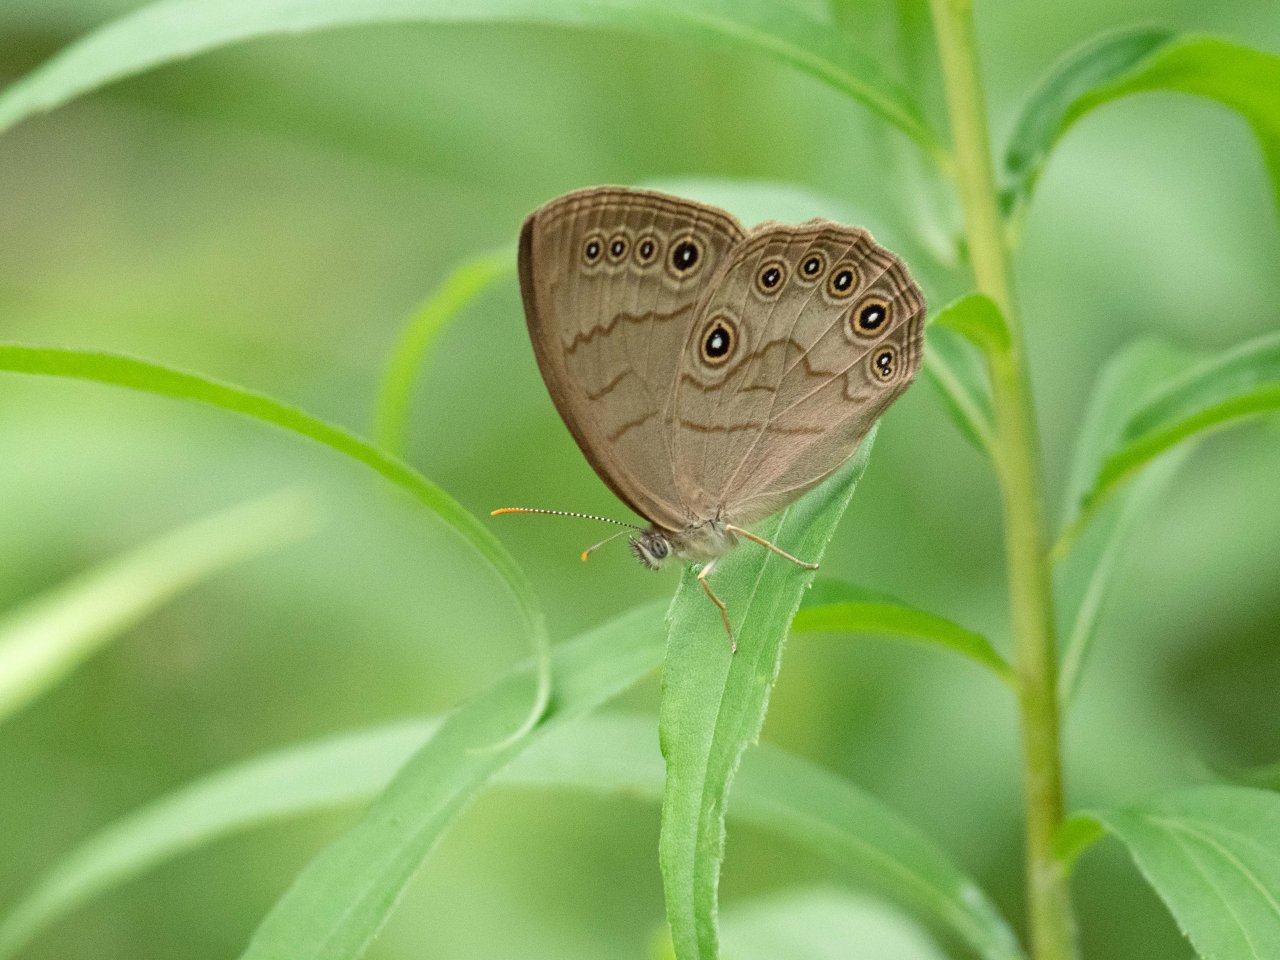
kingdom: Animalia
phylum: Arthropoda
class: Insecta
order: Lepidoptera
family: Nymphalidae
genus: Lethe
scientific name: Lethe eurydice
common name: Appalachian Eyed Brown
